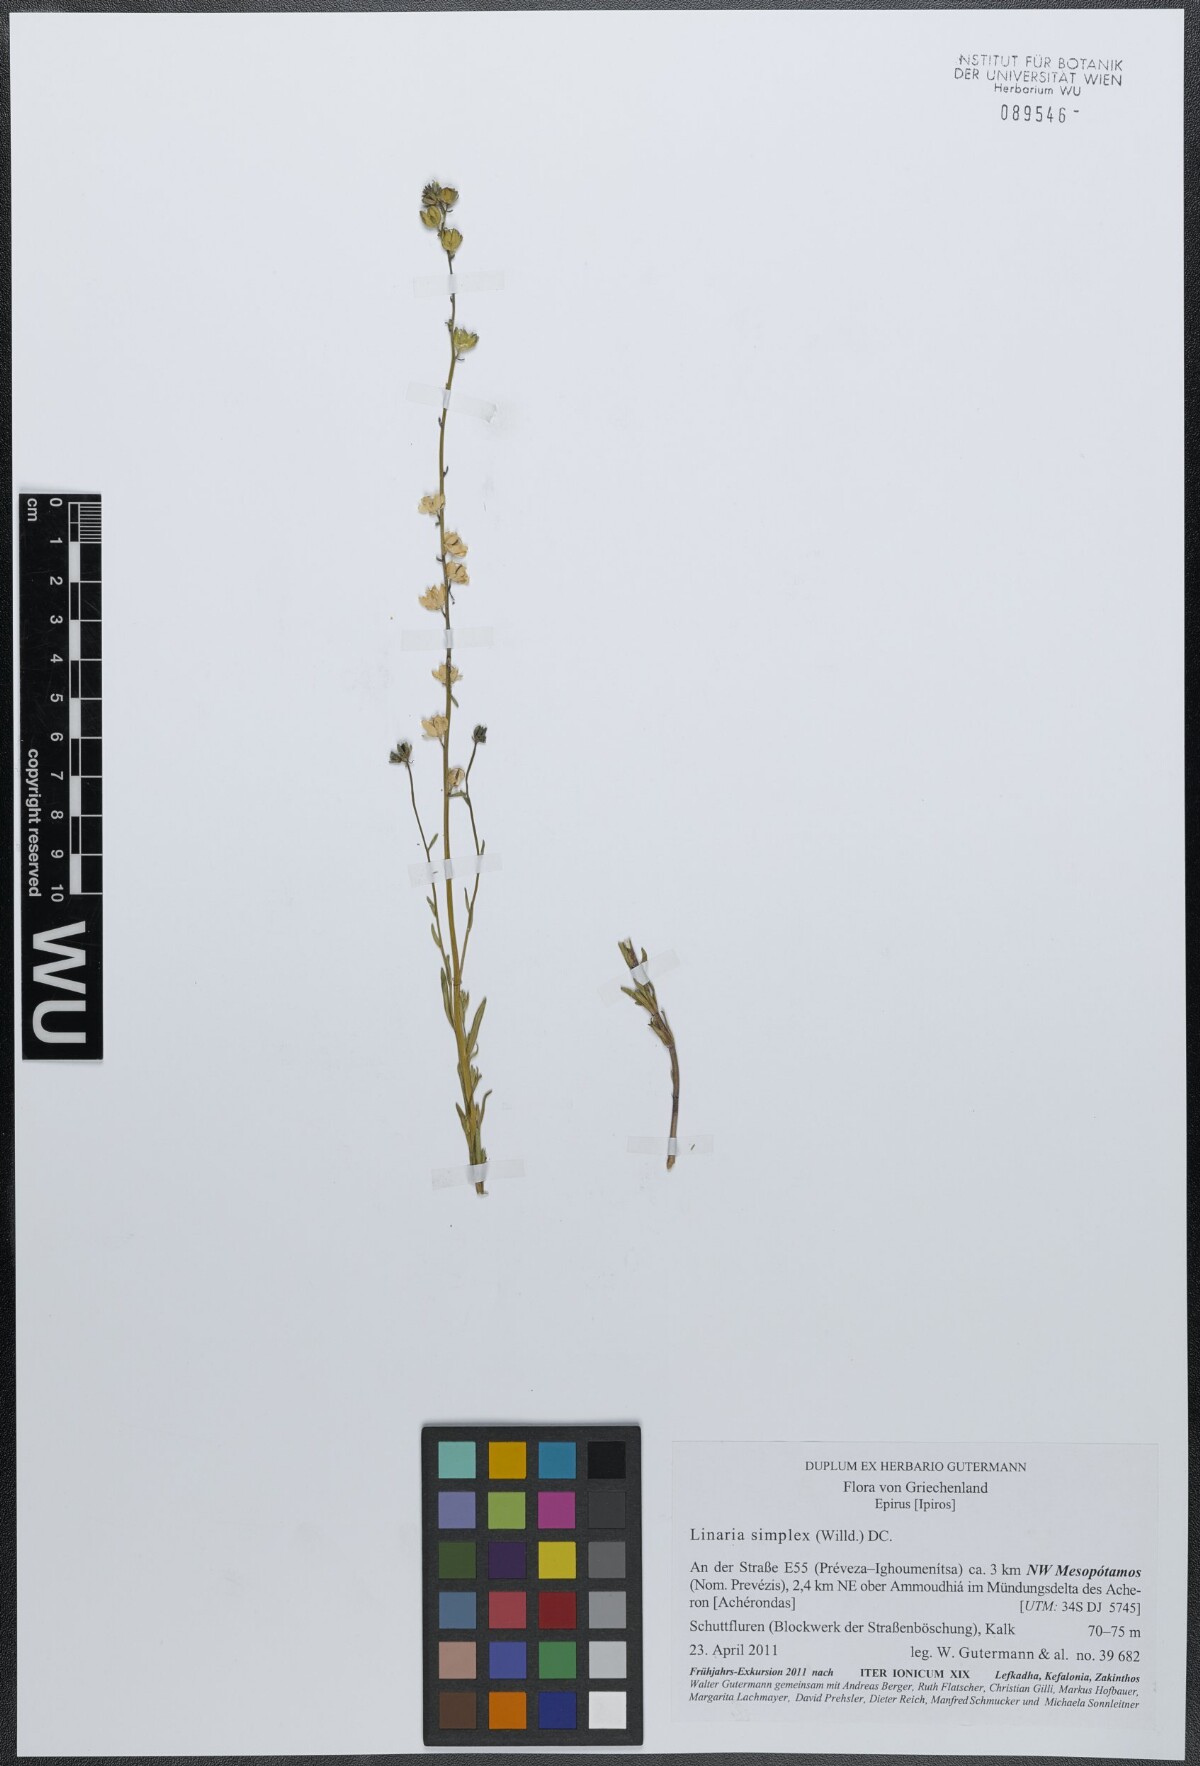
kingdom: Plantae
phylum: Tracheophyta
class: Magnoliopsida
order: Lamiales
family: Plantaginaceae
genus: Linaria
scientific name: Linaria simplex
